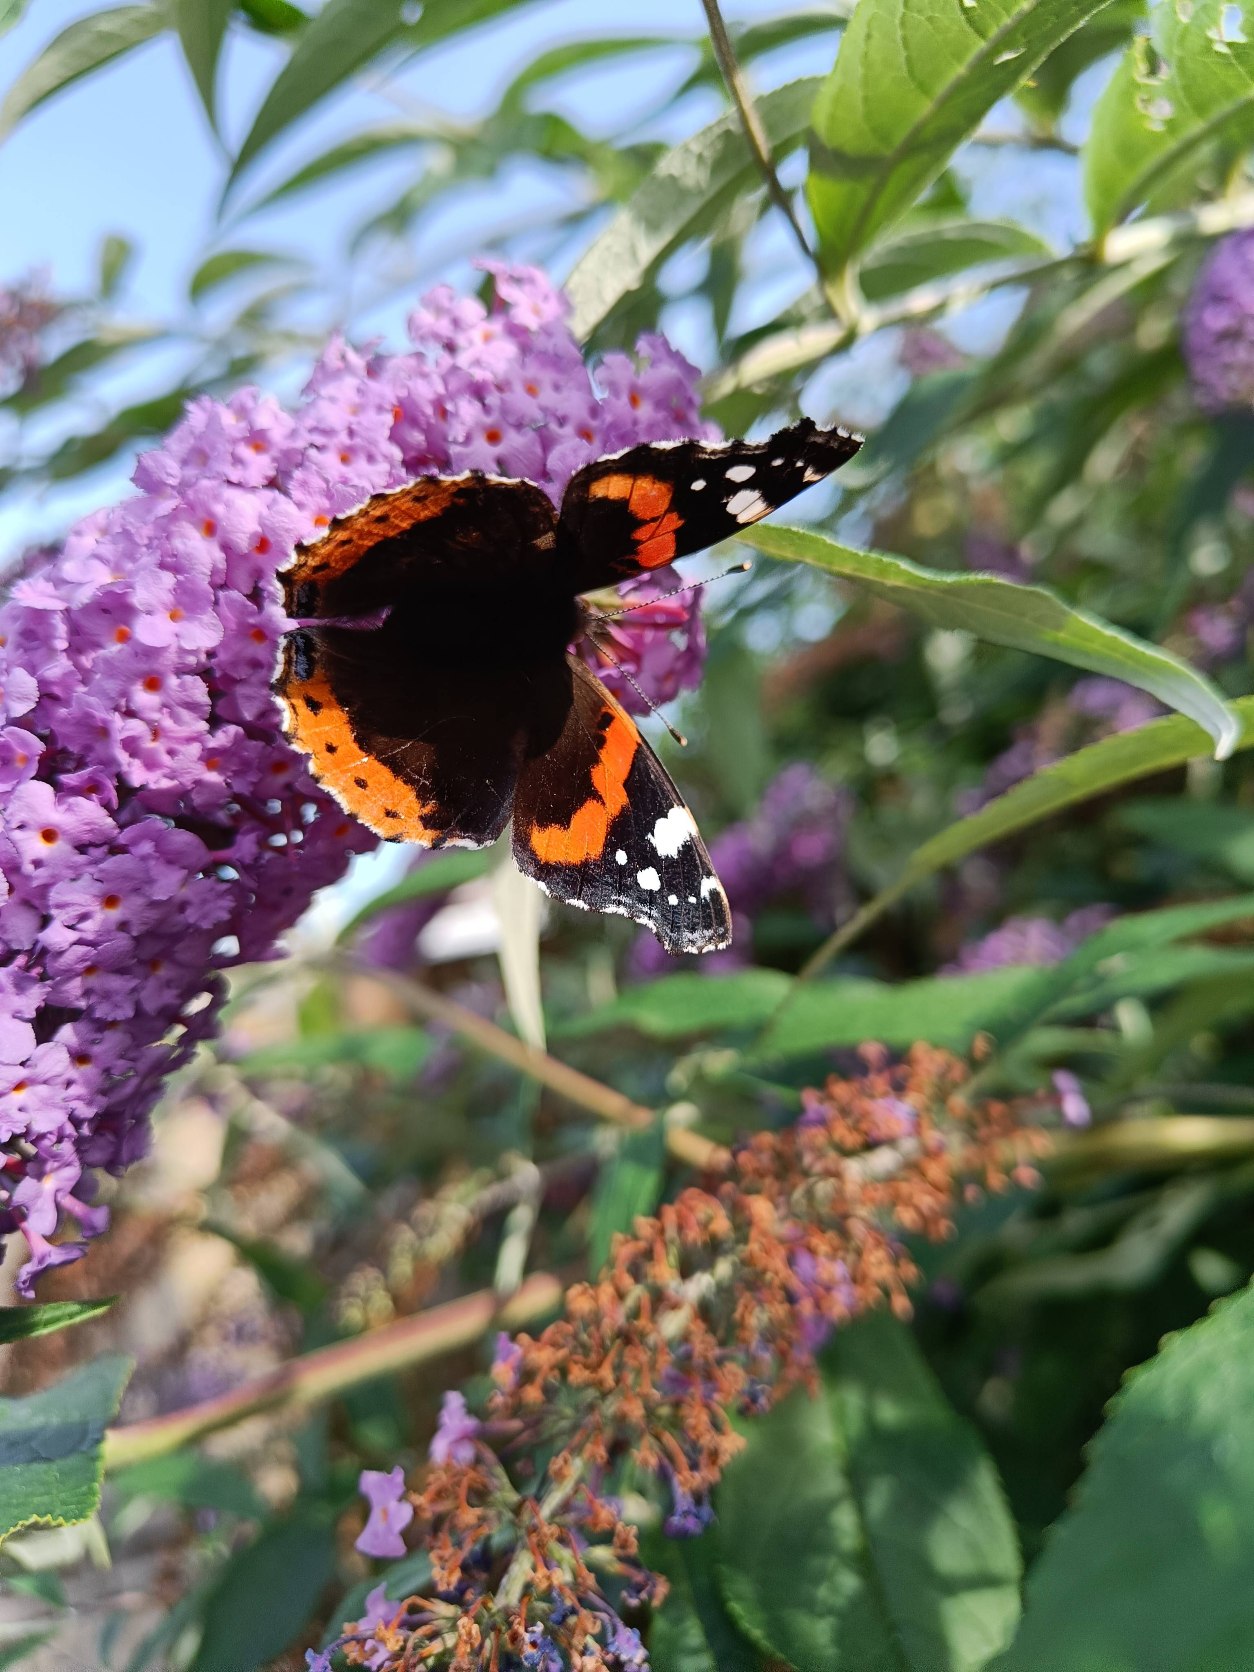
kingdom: Animalia
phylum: Arthropoda
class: Insecta
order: Lepidoptera
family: Nymphalidae
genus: Vanessa
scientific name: Vanessa atalanta
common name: Admiral
